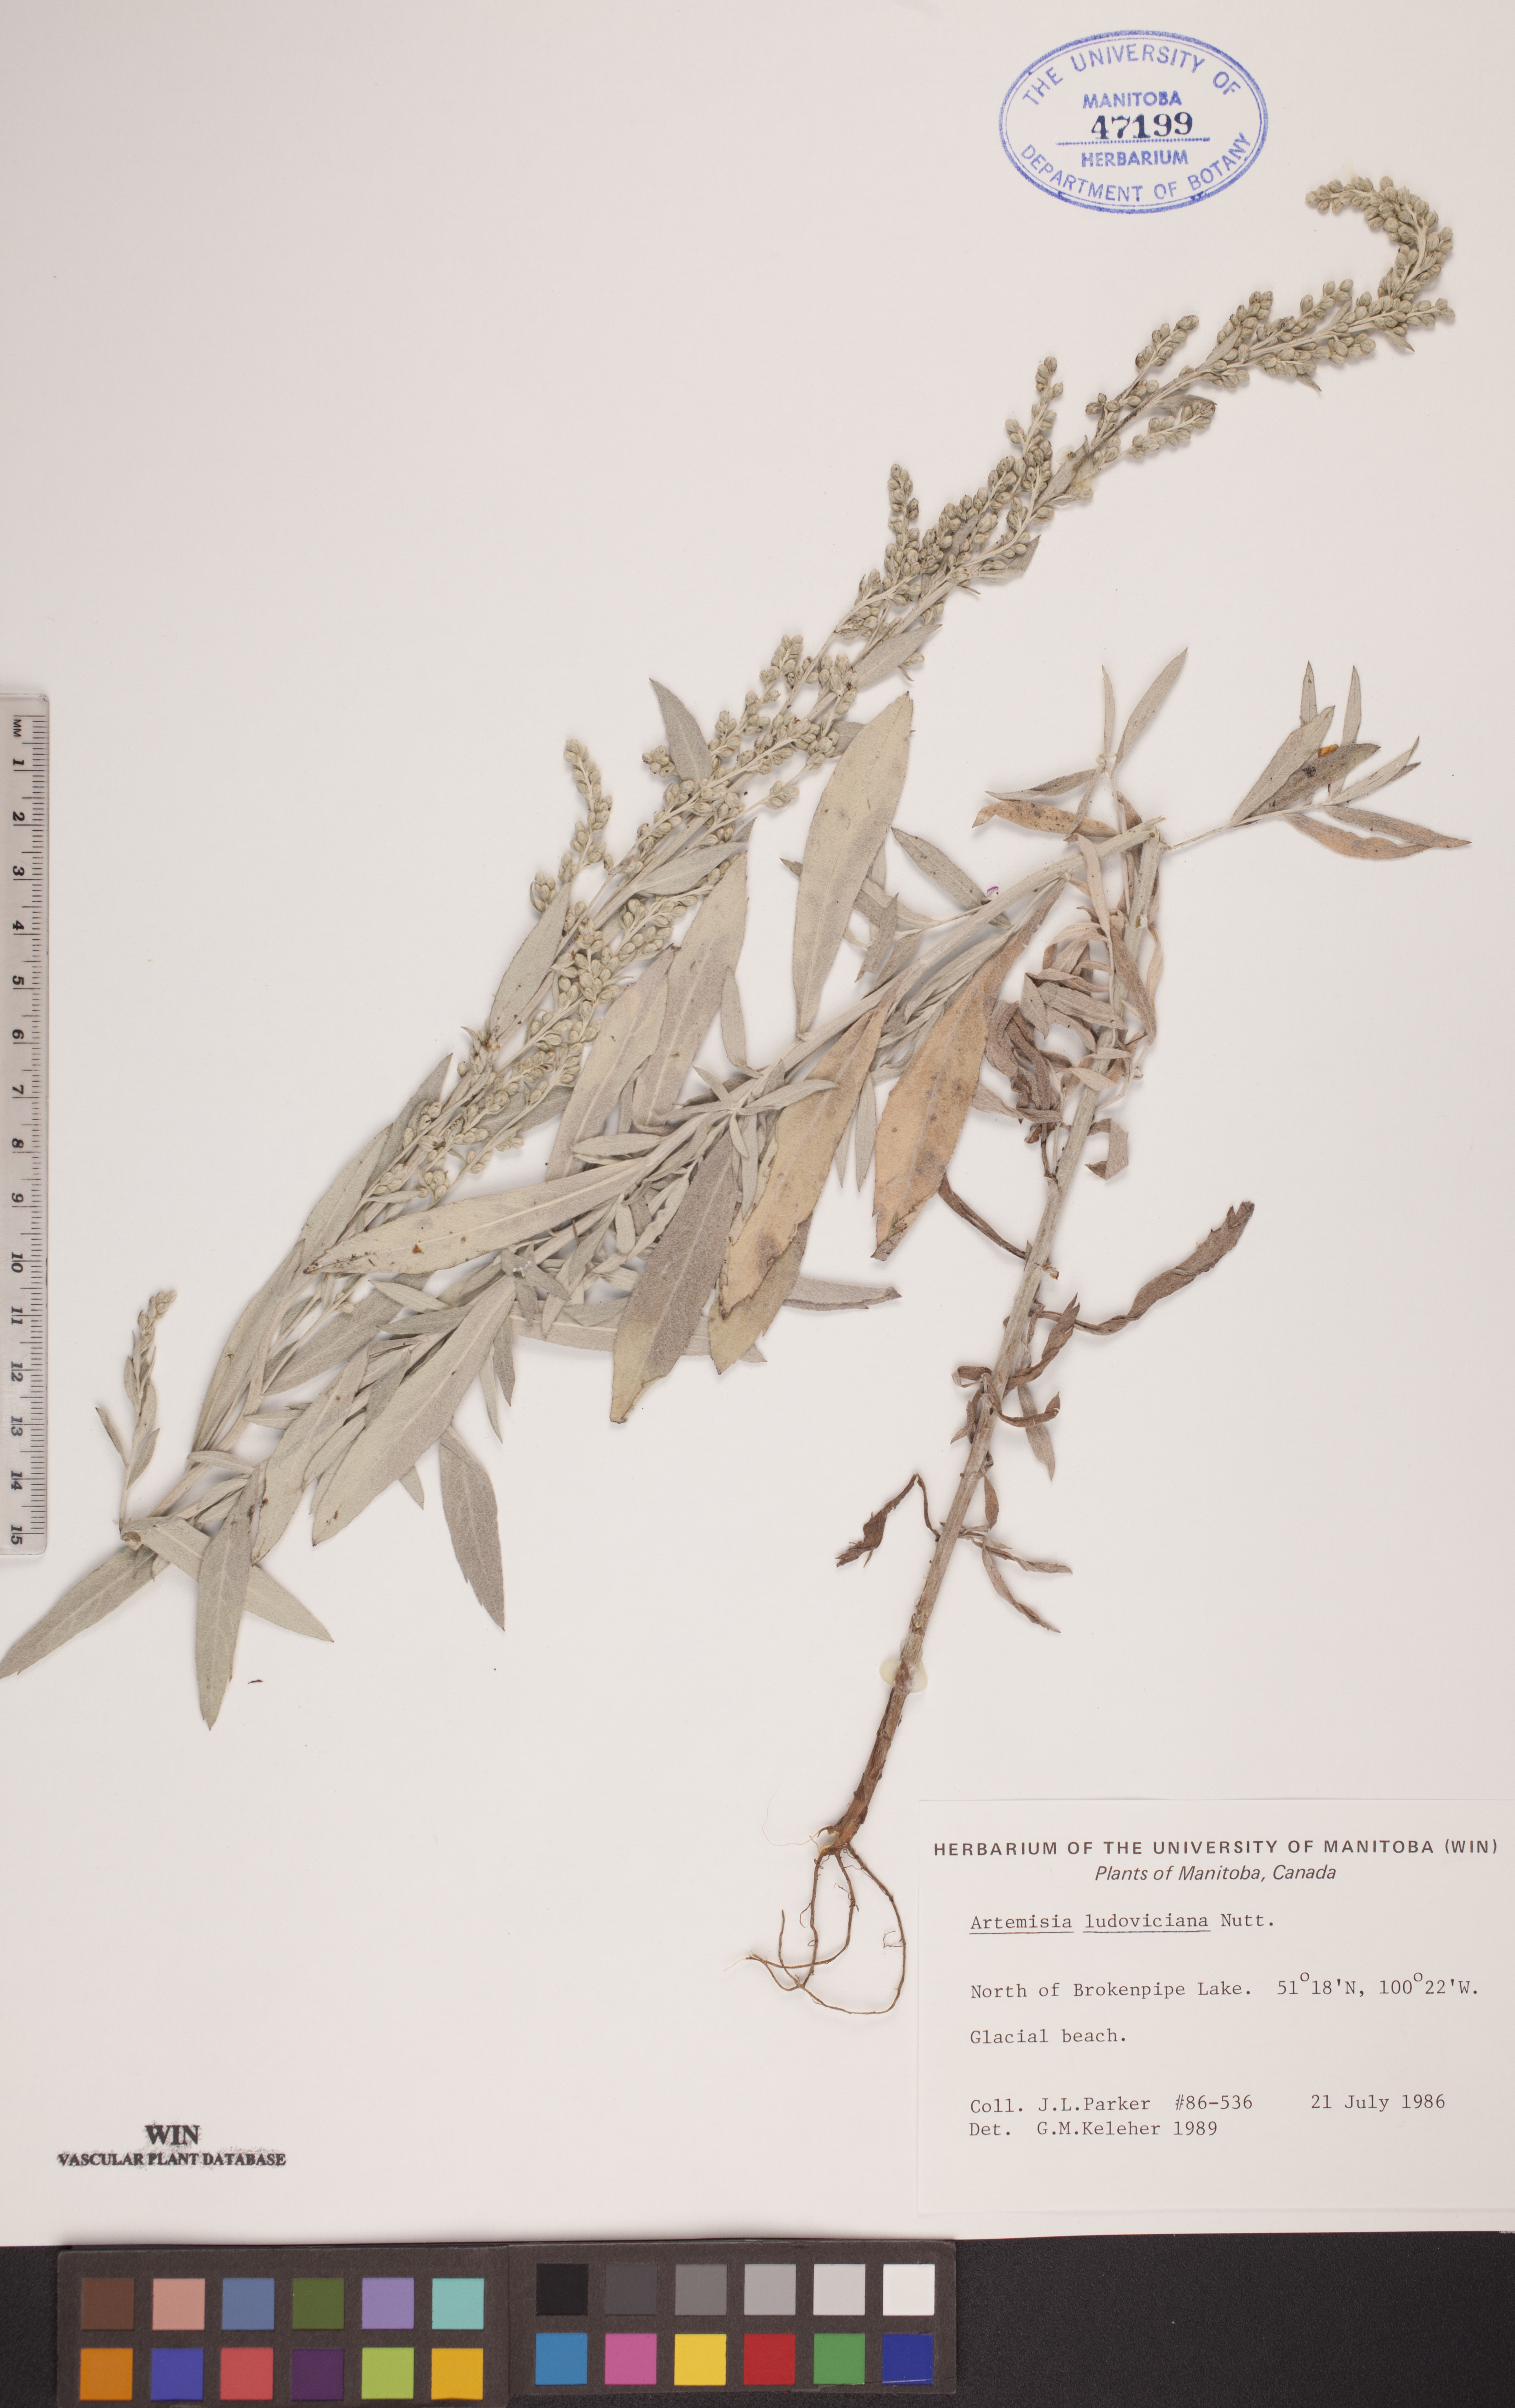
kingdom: Plantae
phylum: Tracheophyta
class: Magnoliopsida
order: Asterales
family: Asteraceae
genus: Artemisia
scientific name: Artemisia ludoviciana
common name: Western mugwort
